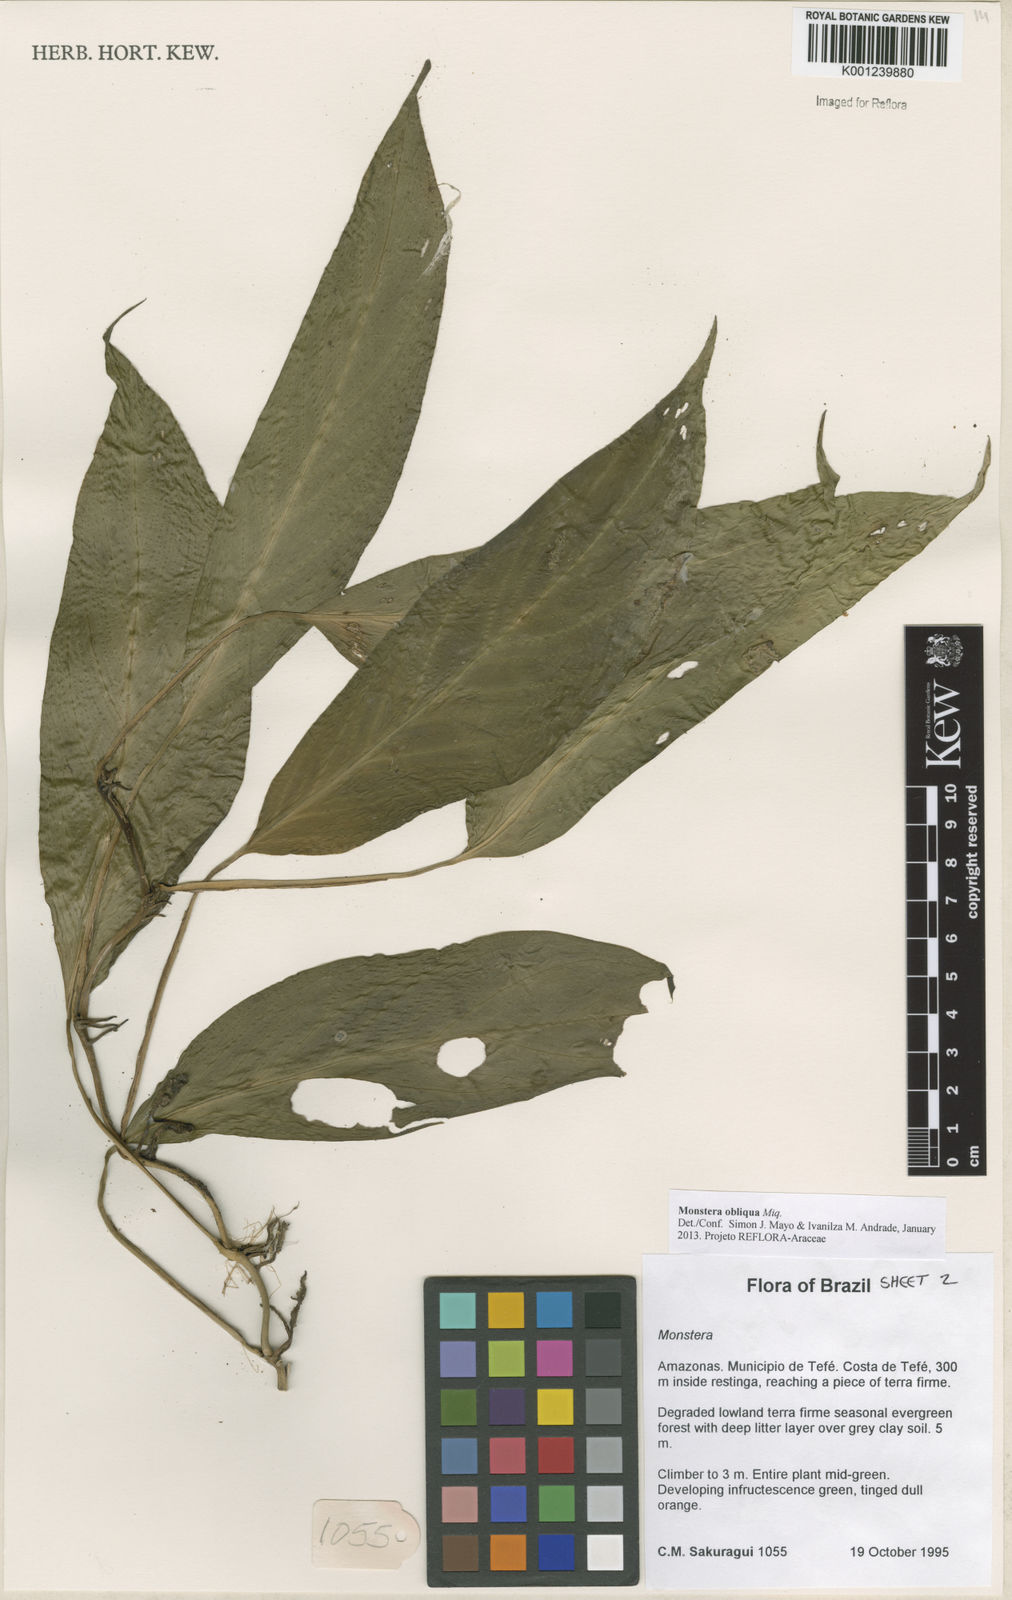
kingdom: Plantae
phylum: Tracheophyta
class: Liliopsida
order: Alismatales
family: Araceae
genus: Monstera
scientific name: Monstera obliqua
